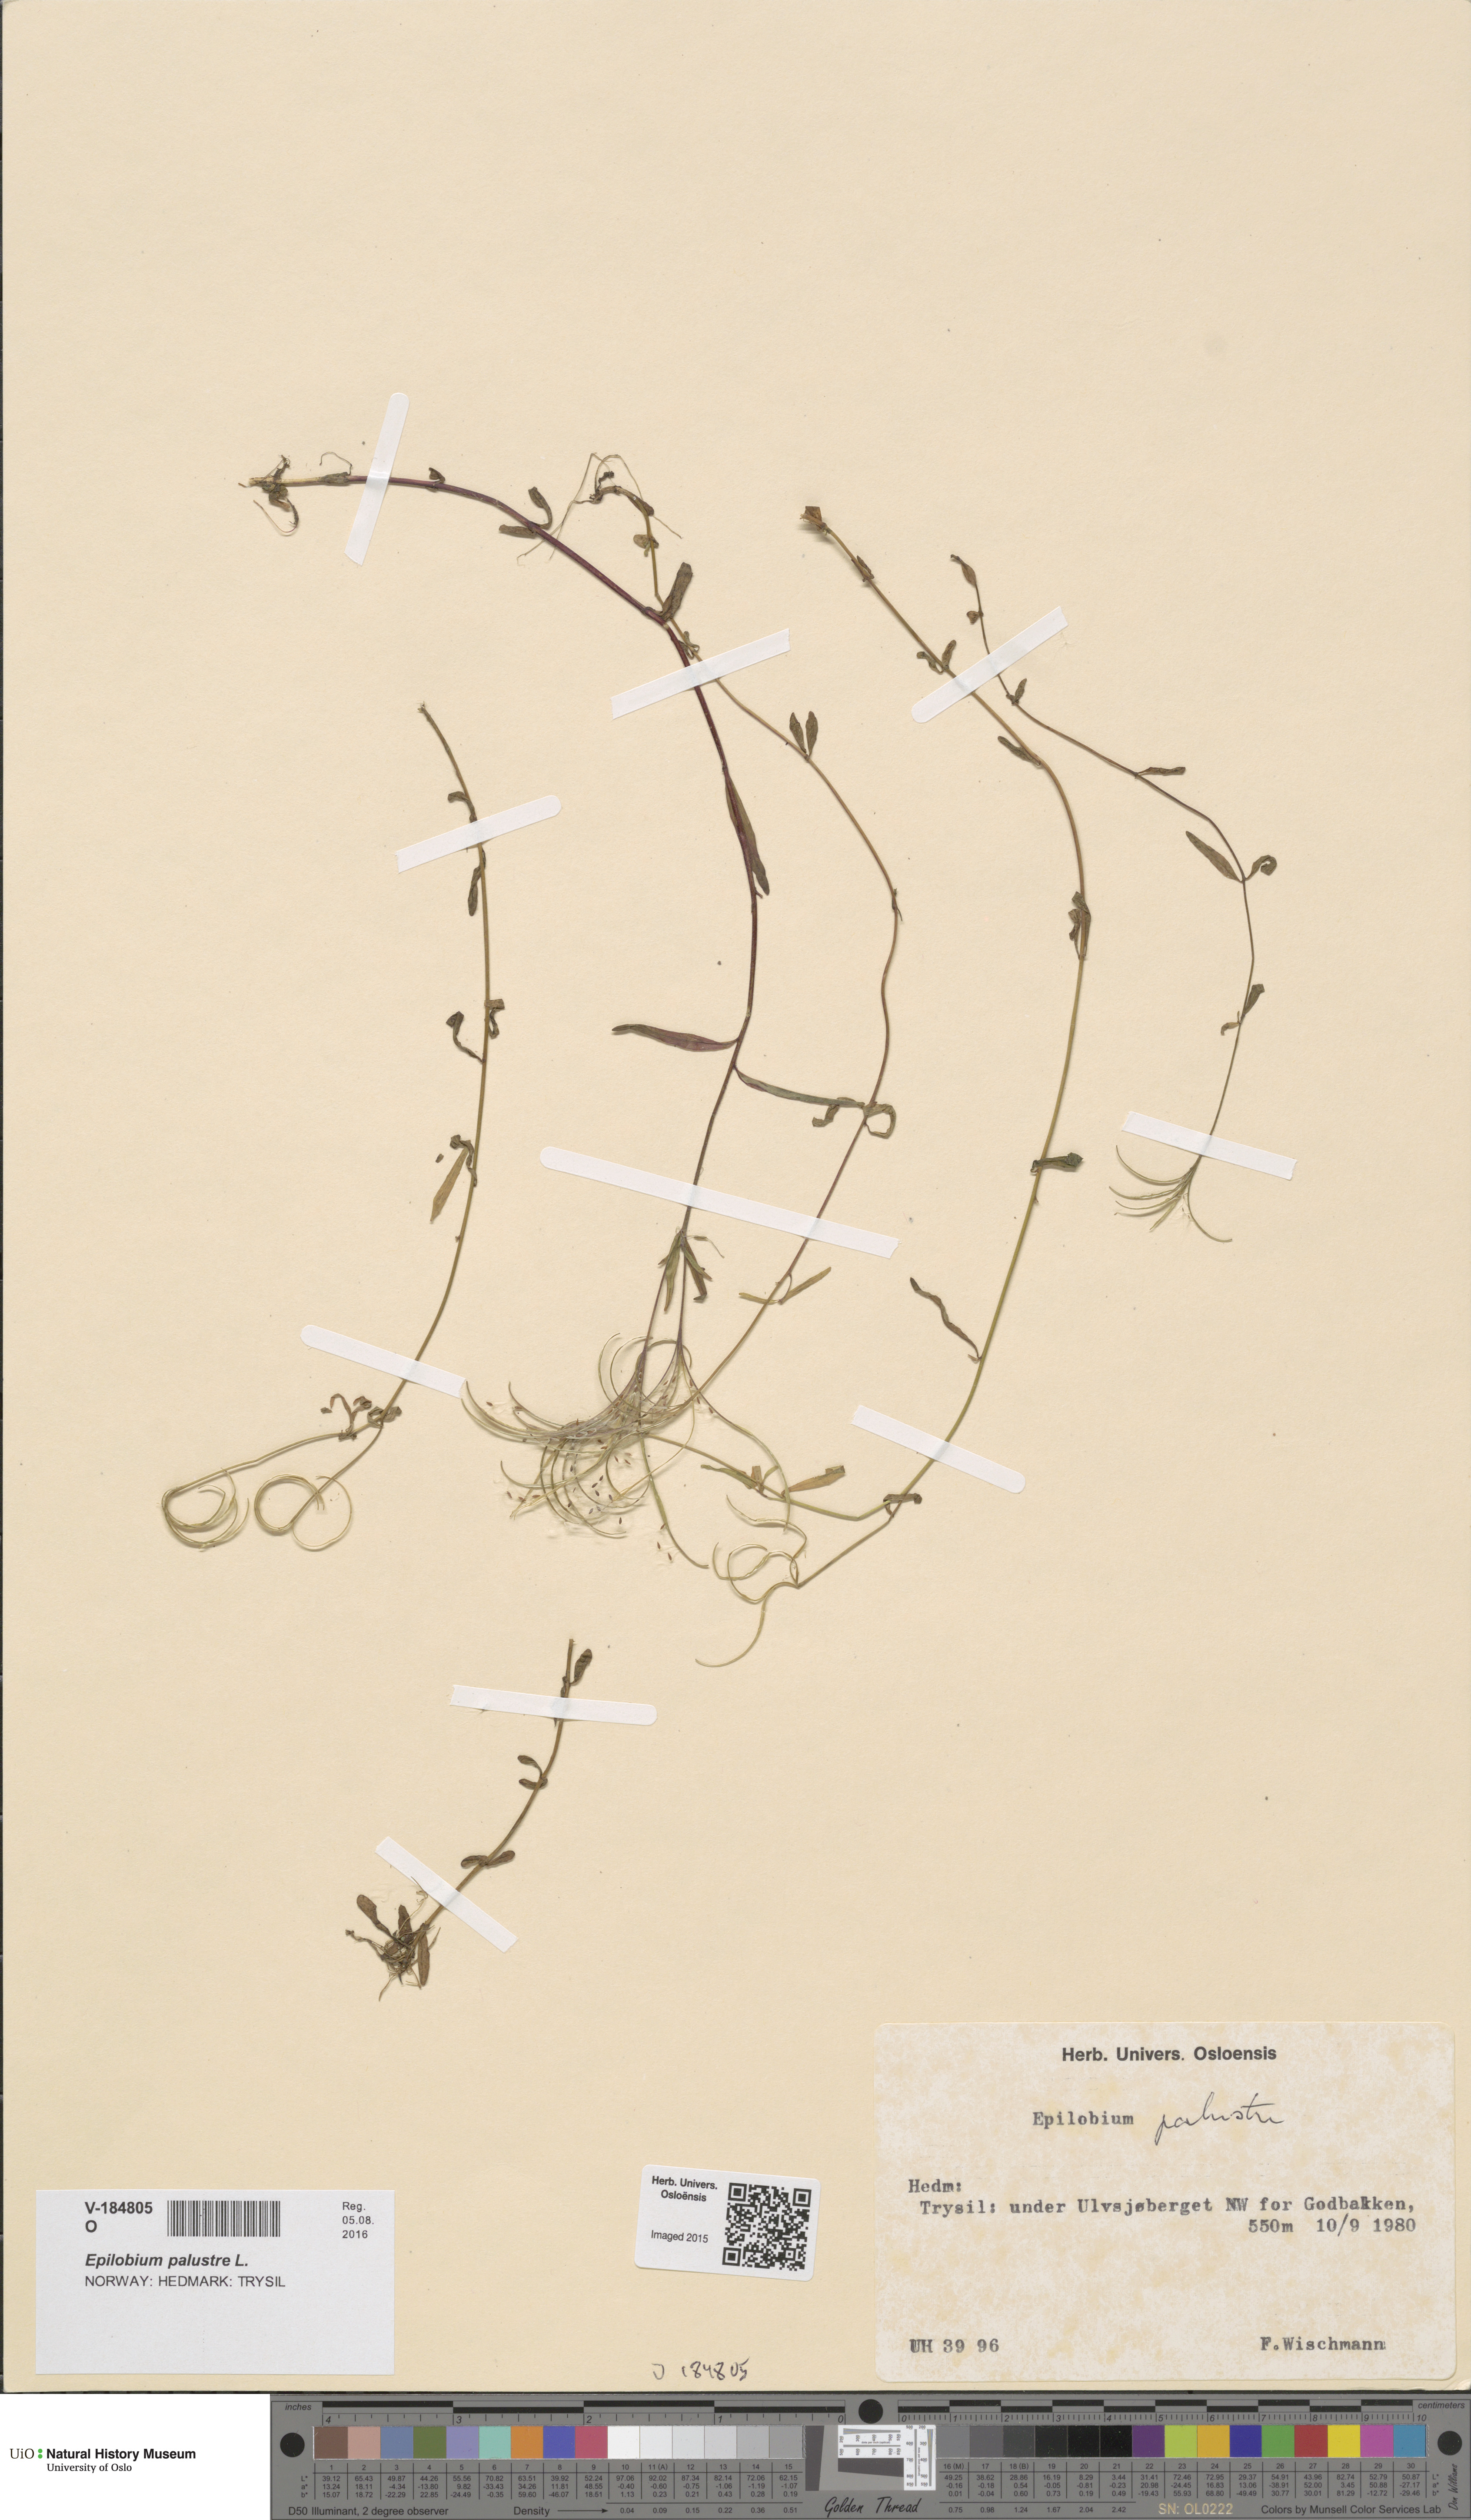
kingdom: Plantae
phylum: Tracheophyta
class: Magnoliopsida
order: Myrtales
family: Onagraceae
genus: Epilobium
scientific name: Epilobium palustre
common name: Marsh willowherb
